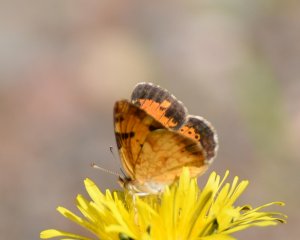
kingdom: Animalia
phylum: Arthropoda
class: Insecta
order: Lepidoptera
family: Nymphalidae
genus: Phyciodes
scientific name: Phyciodes tharos
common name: Northern Crescent
